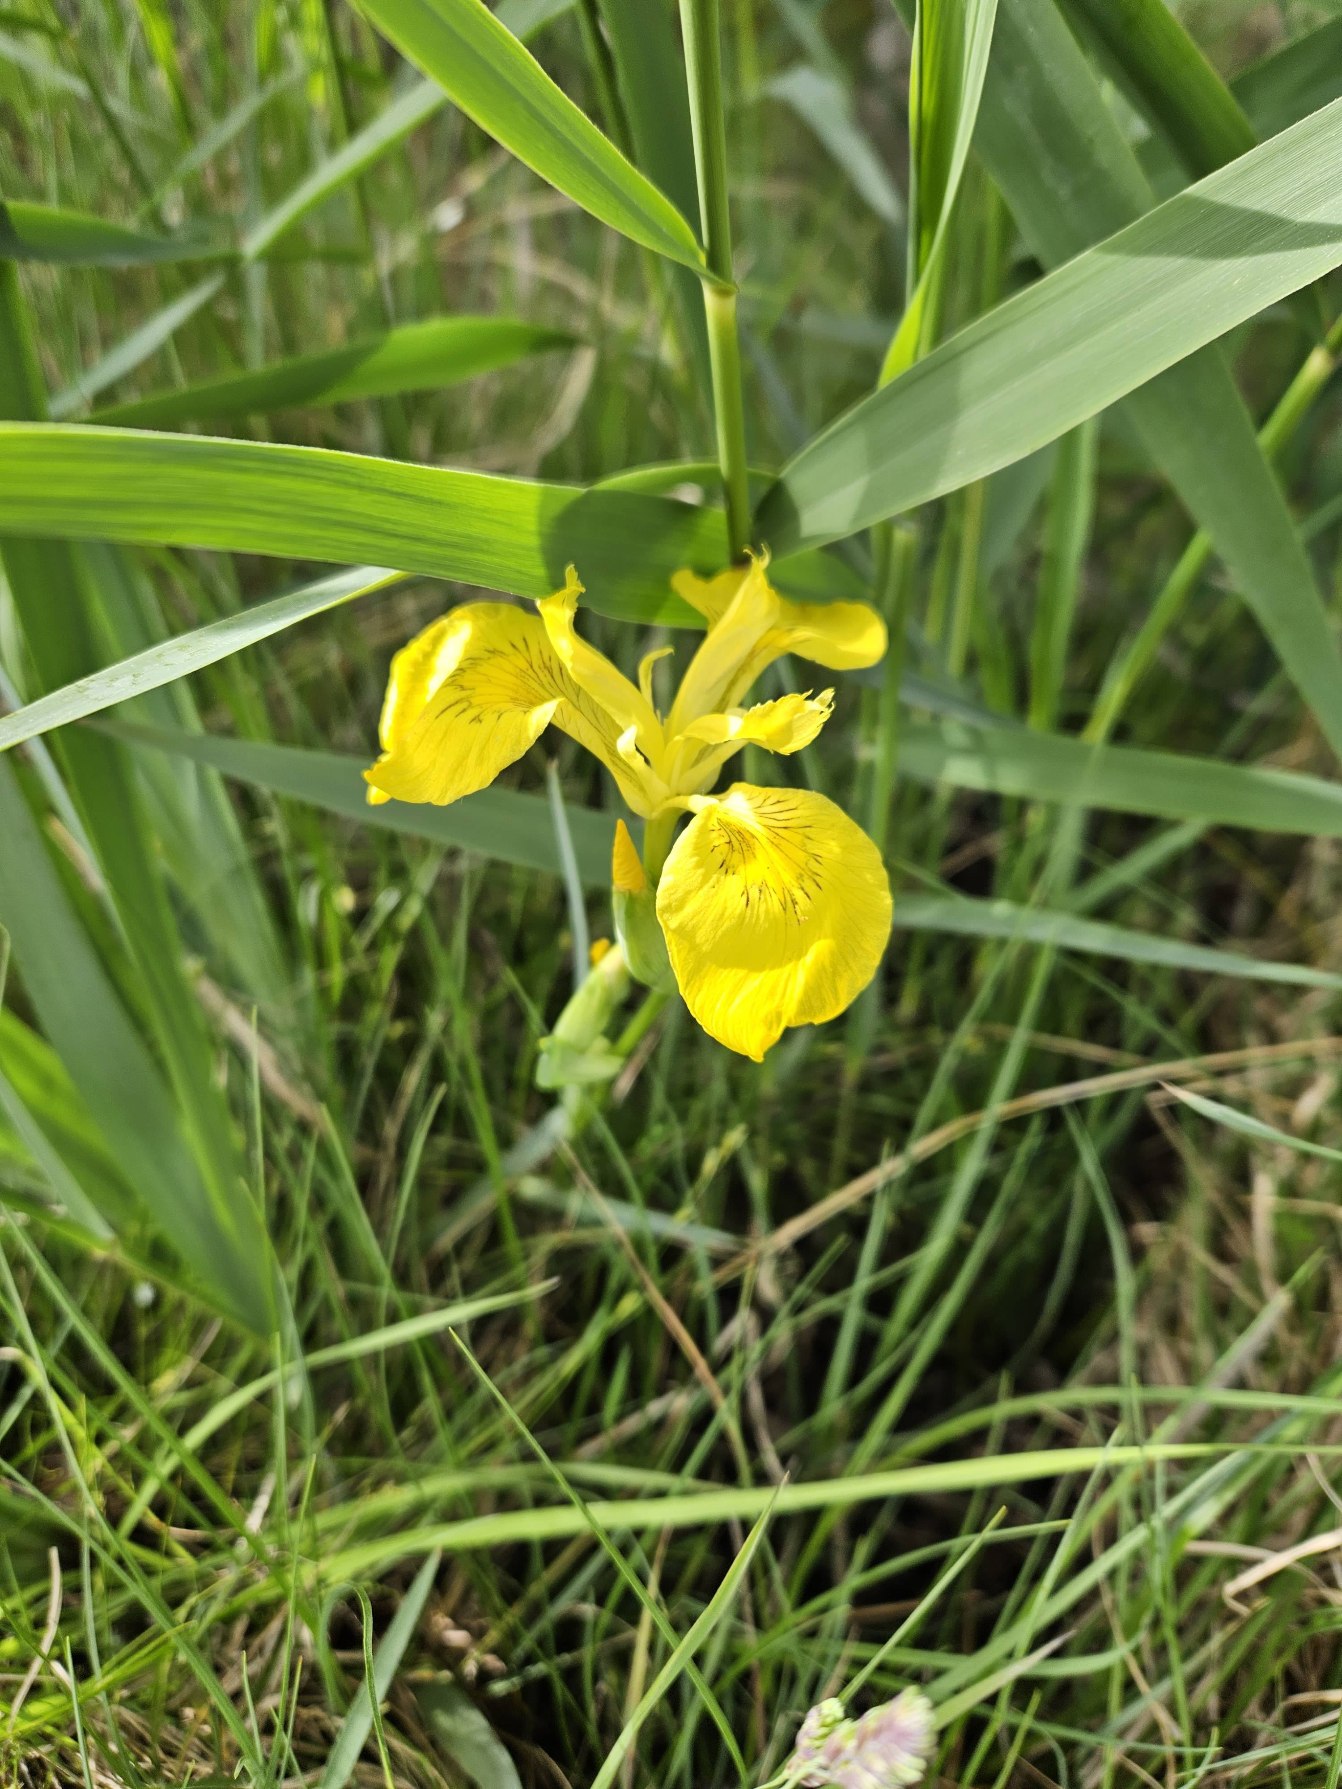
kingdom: Plantae
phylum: Tracheophyta
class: Liliopsida
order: Asparagales
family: Iridaceae
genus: Iris
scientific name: Iris pseudacorus
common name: Gul iris
